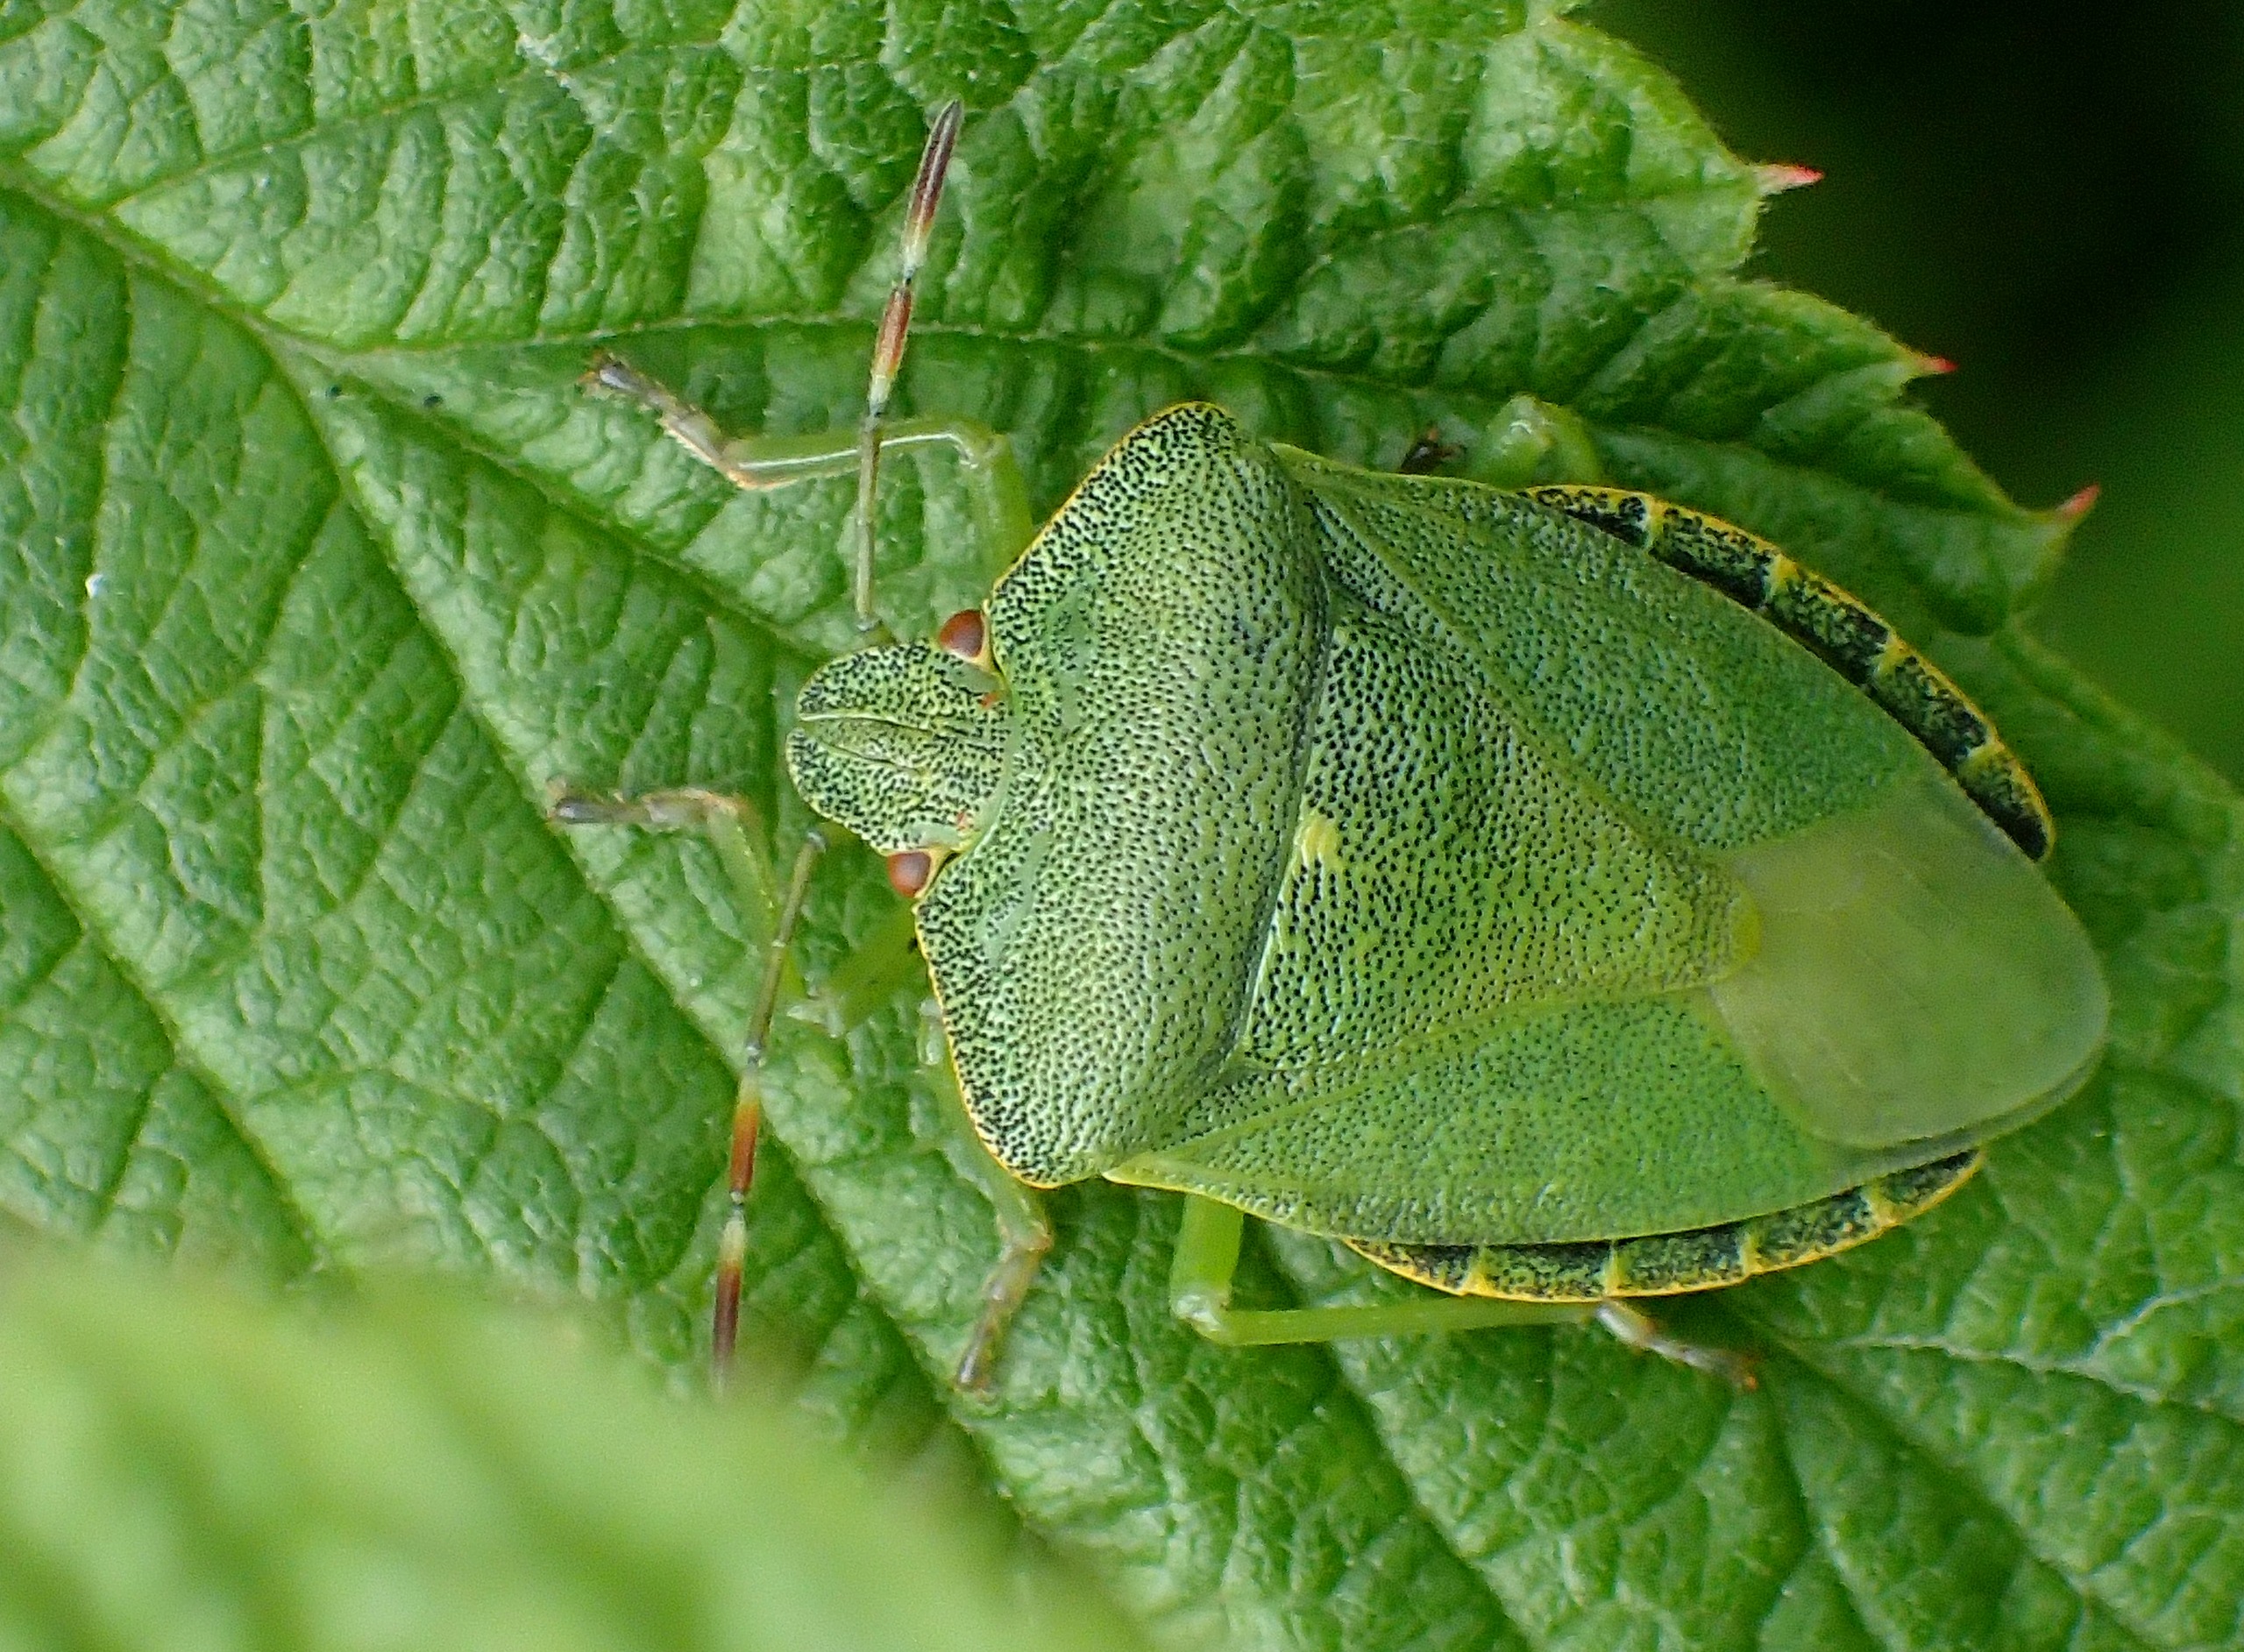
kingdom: Animalia
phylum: Arthropoda
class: Insecta
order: Hemiptera
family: Pentatomidae
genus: Palomena
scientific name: Palomena prasina
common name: Grøn bredtæge
